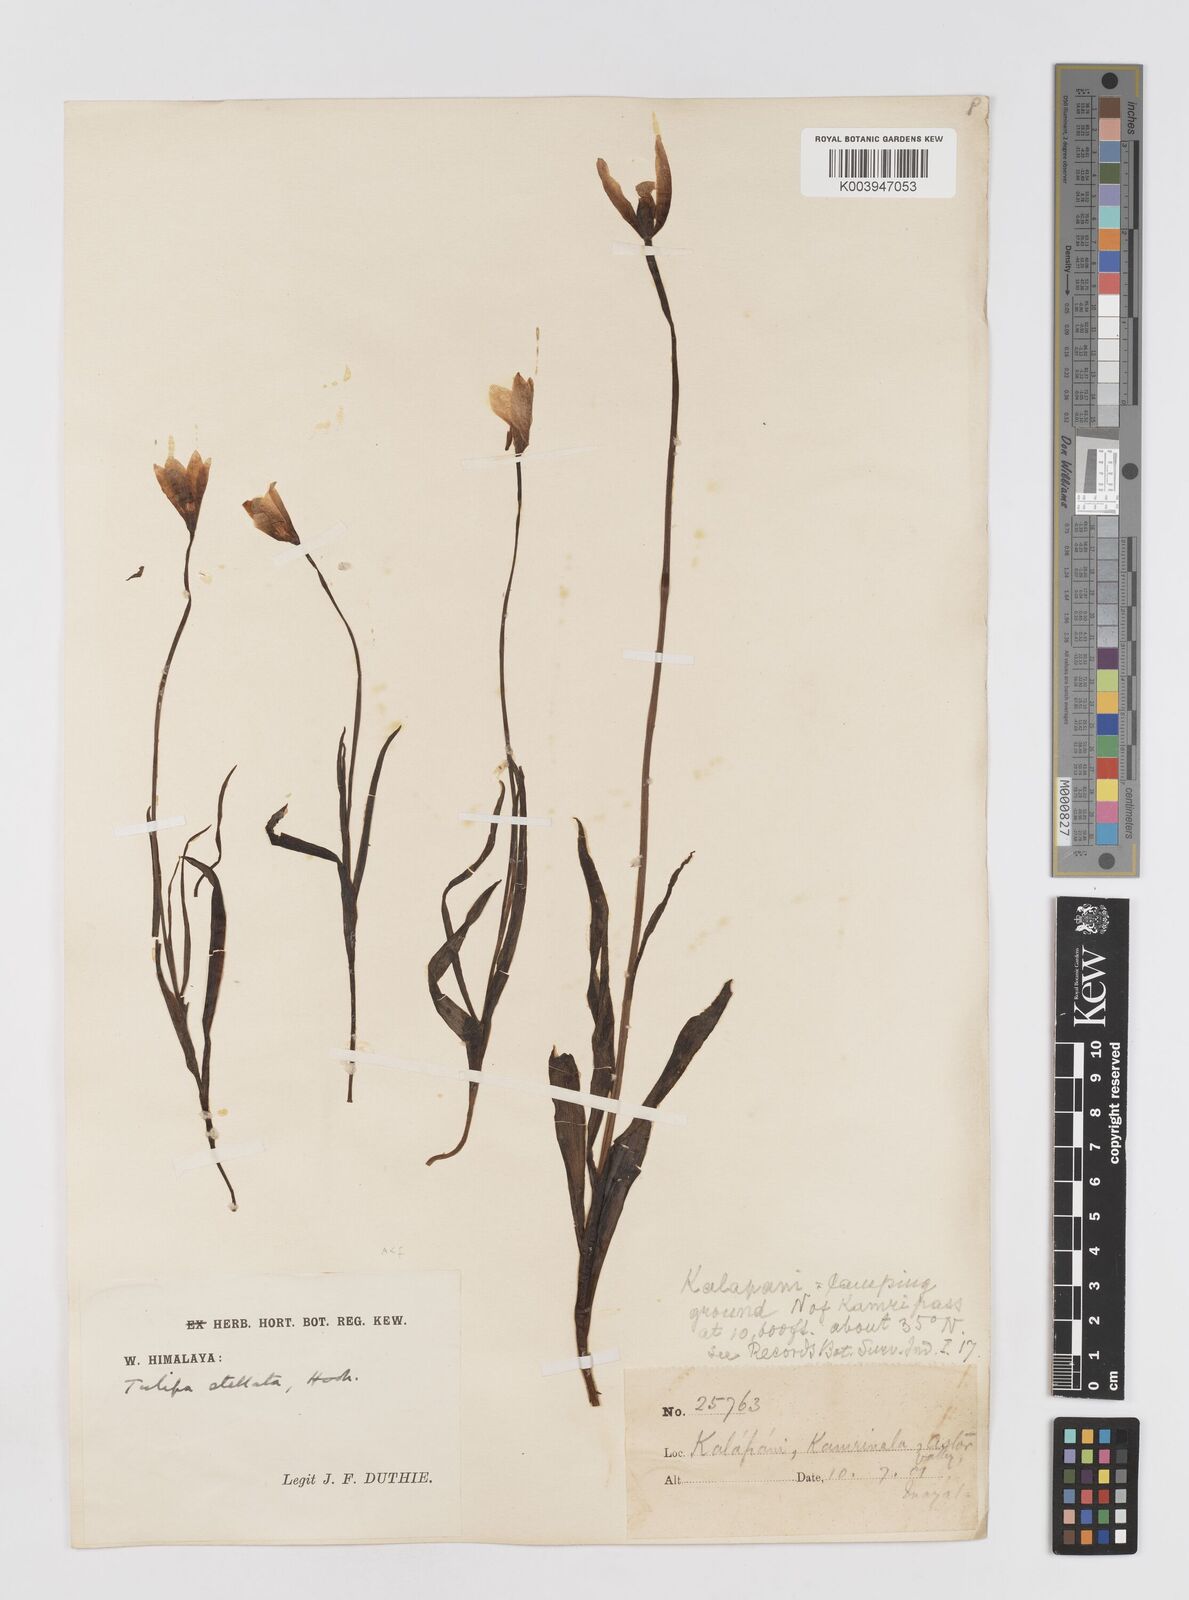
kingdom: Plantae
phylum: Tracheophyta
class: Liliopsida
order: Liliales
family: Liliaceae
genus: Tulipa
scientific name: Tulipa clusiana
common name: Lady tulip
